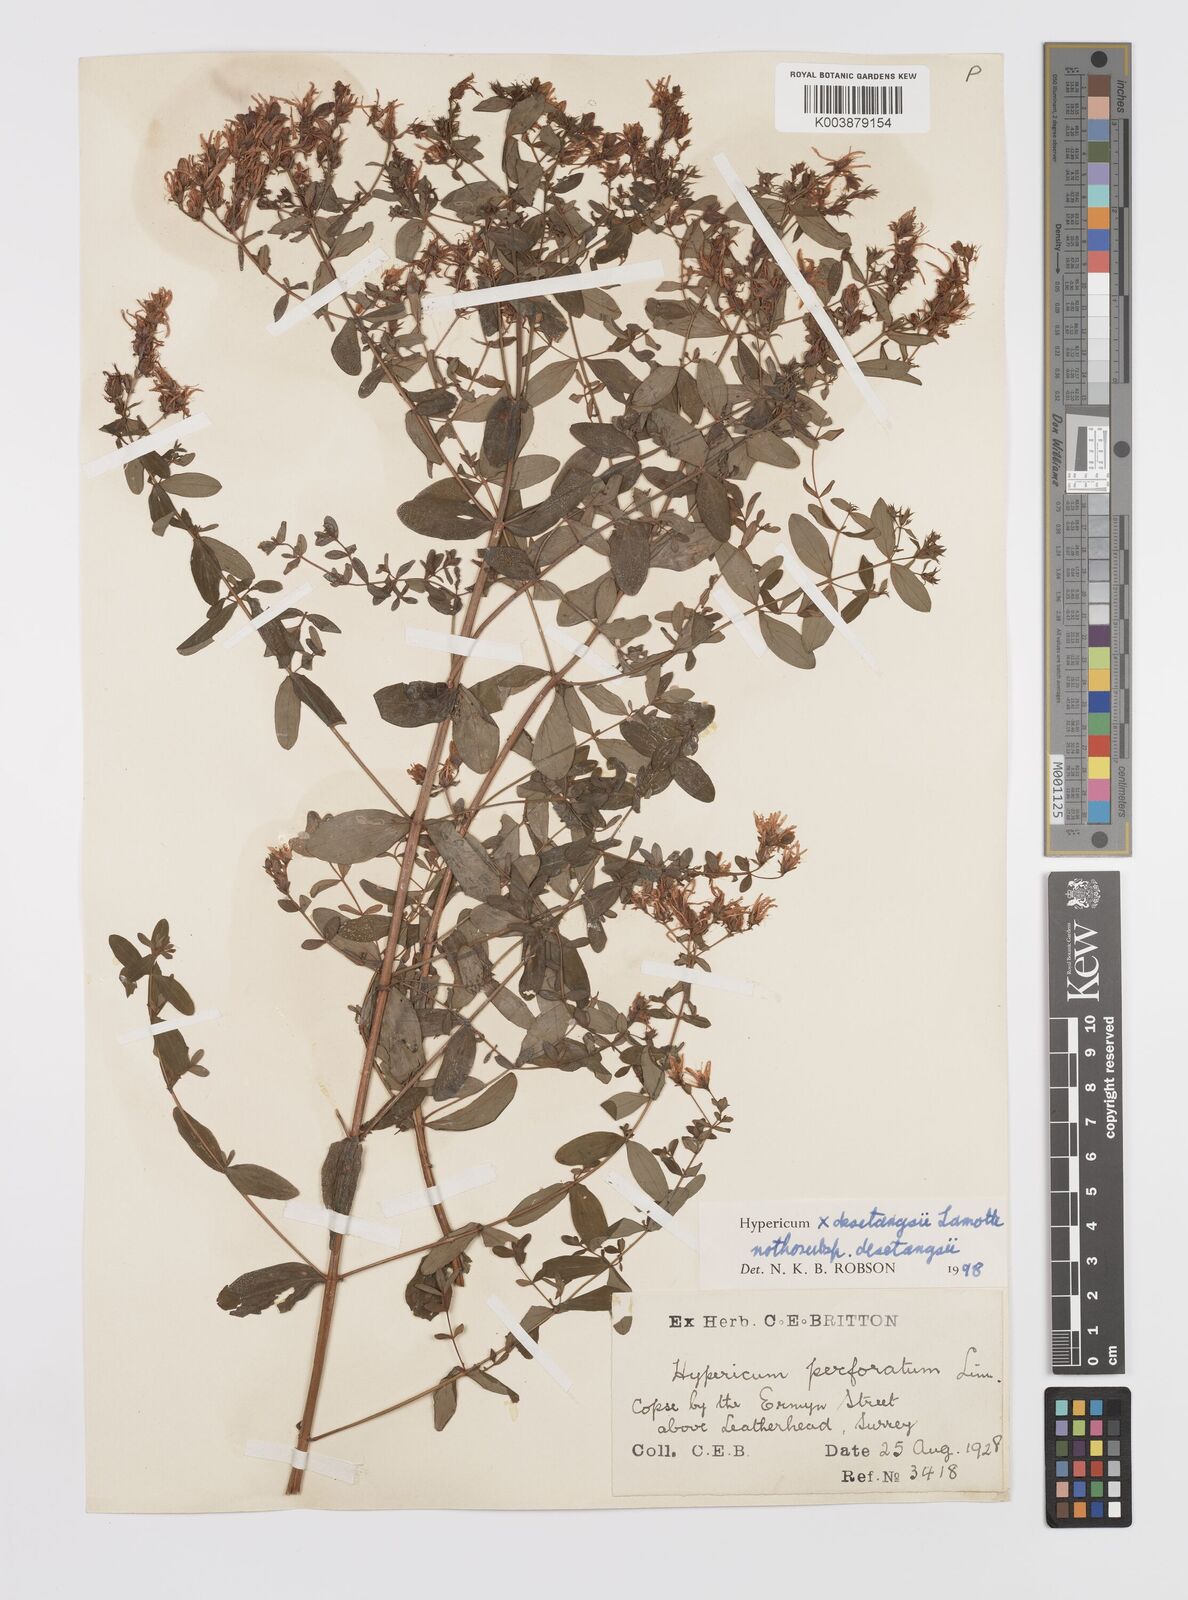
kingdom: Plantae
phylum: Tracheophyta
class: Magnoliopsida
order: Malpighiales
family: Hypericaceae
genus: Hypericum
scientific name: Hypericum desetangsii
